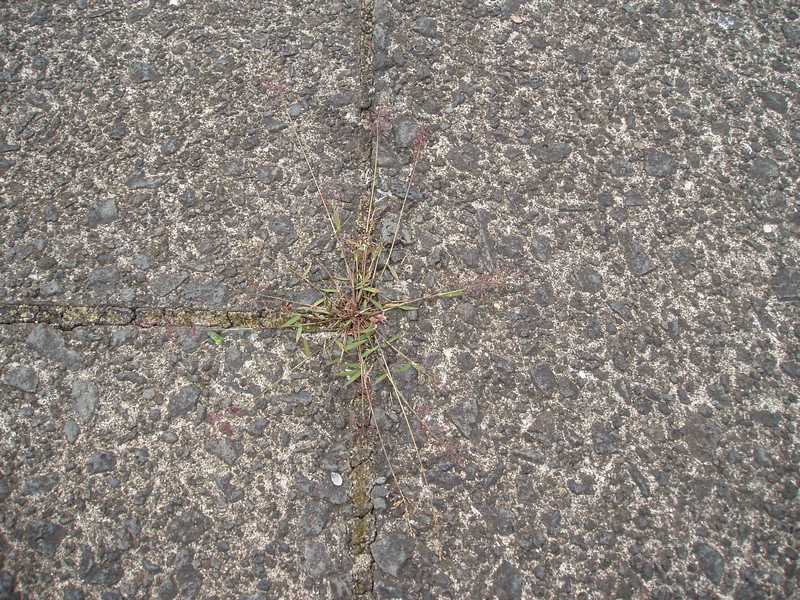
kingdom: Plantae
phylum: Tracheophyta
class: Liliopsida
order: Poales
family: Poaceae
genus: Eragrostis
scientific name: Eragrostis viscosa
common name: Sticky love grass
